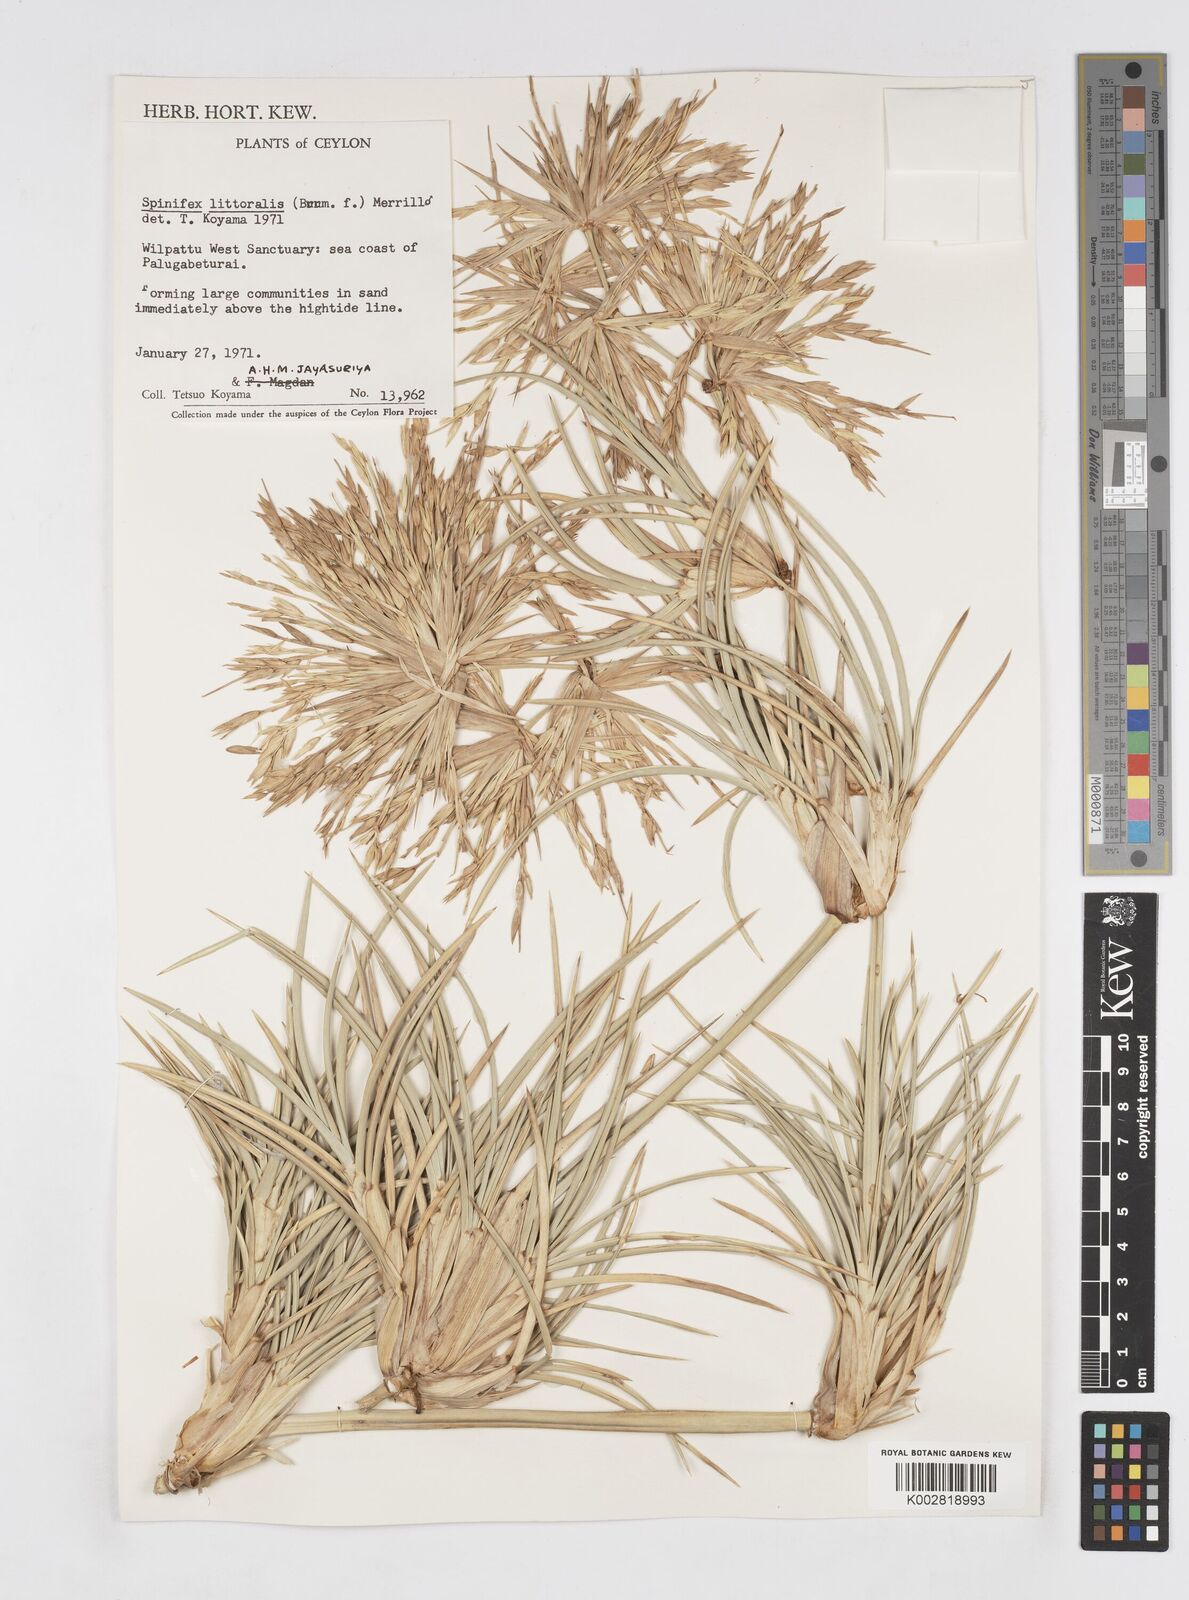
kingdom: Plantae
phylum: Tracheophyta
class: Liliopsida
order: Poales
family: Poaceae
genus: Spinifex
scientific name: Spinifex littoreus
